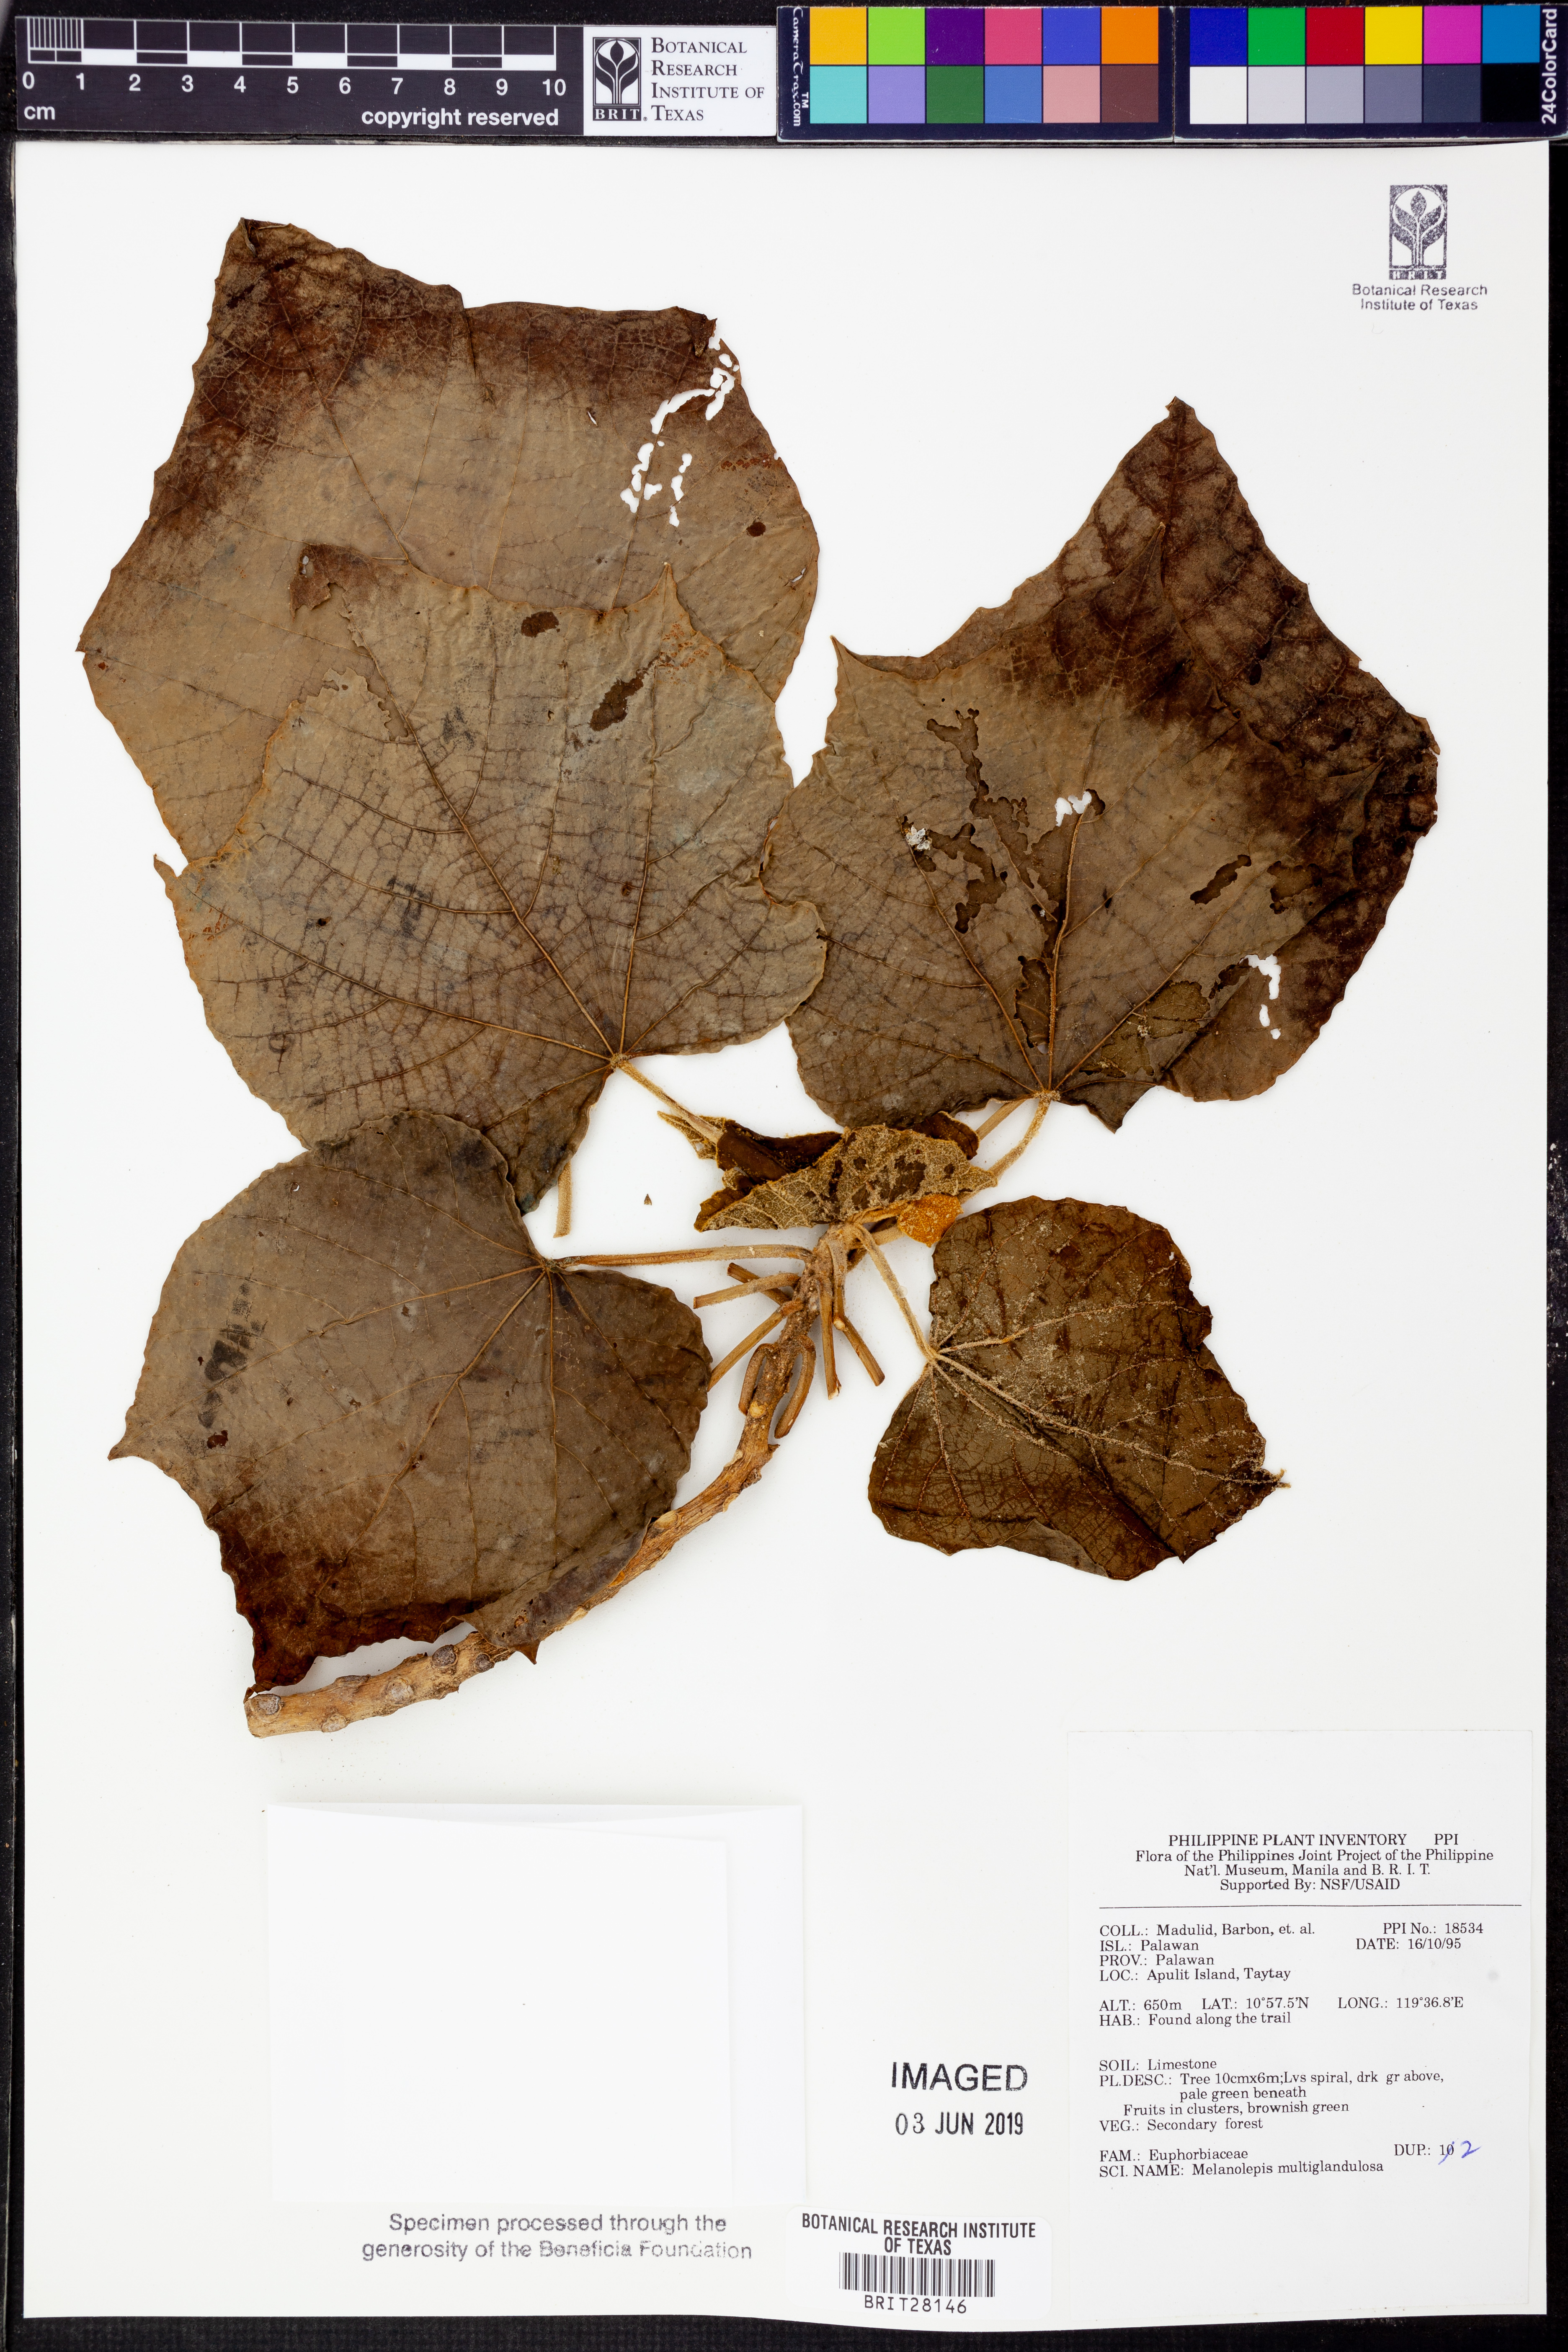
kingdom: Plantae
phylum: Tracheophyta
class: Magnoliopsida
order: Malpighiales
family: Euphorbiaceae
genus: Melanolepis
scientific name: Melanolepis multiglandulosa
